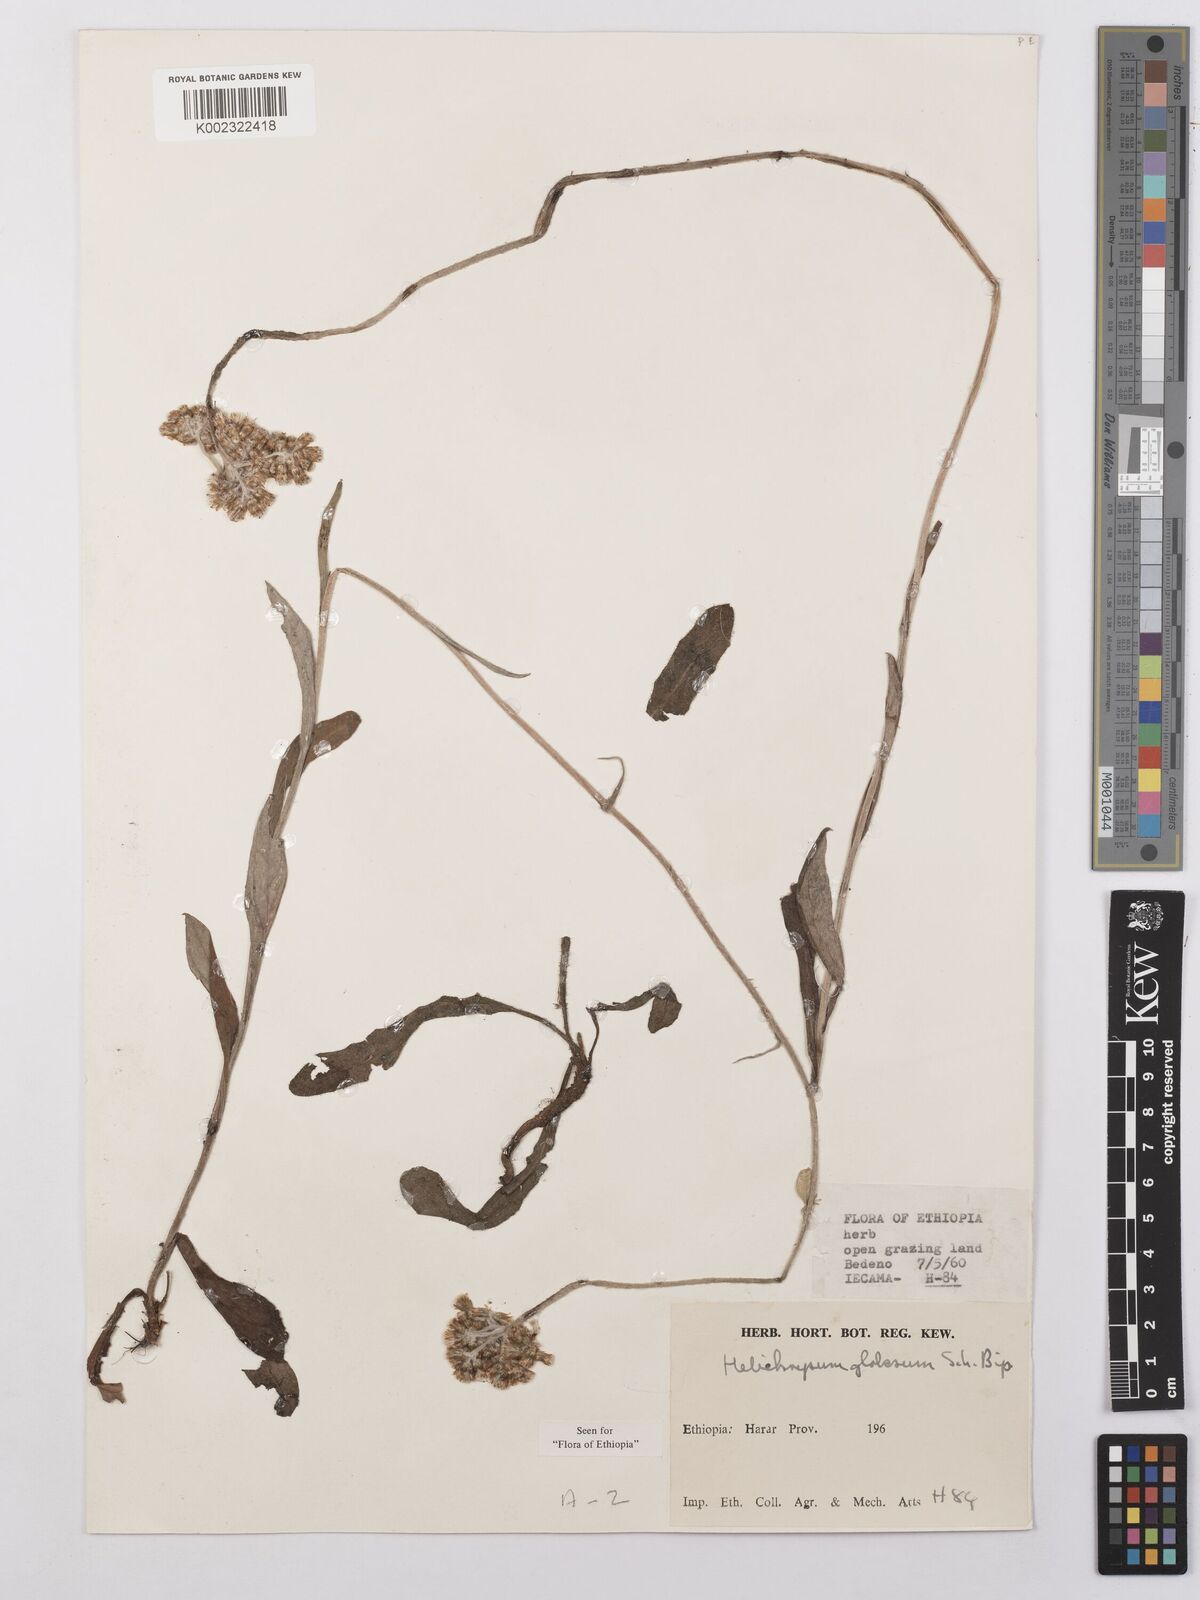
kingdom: Plantae
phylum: Tracheophyta
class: Magnoliopsida
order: Asterales
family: Asteraceae
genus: Helichrysum
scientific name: Helichrysum globosum
